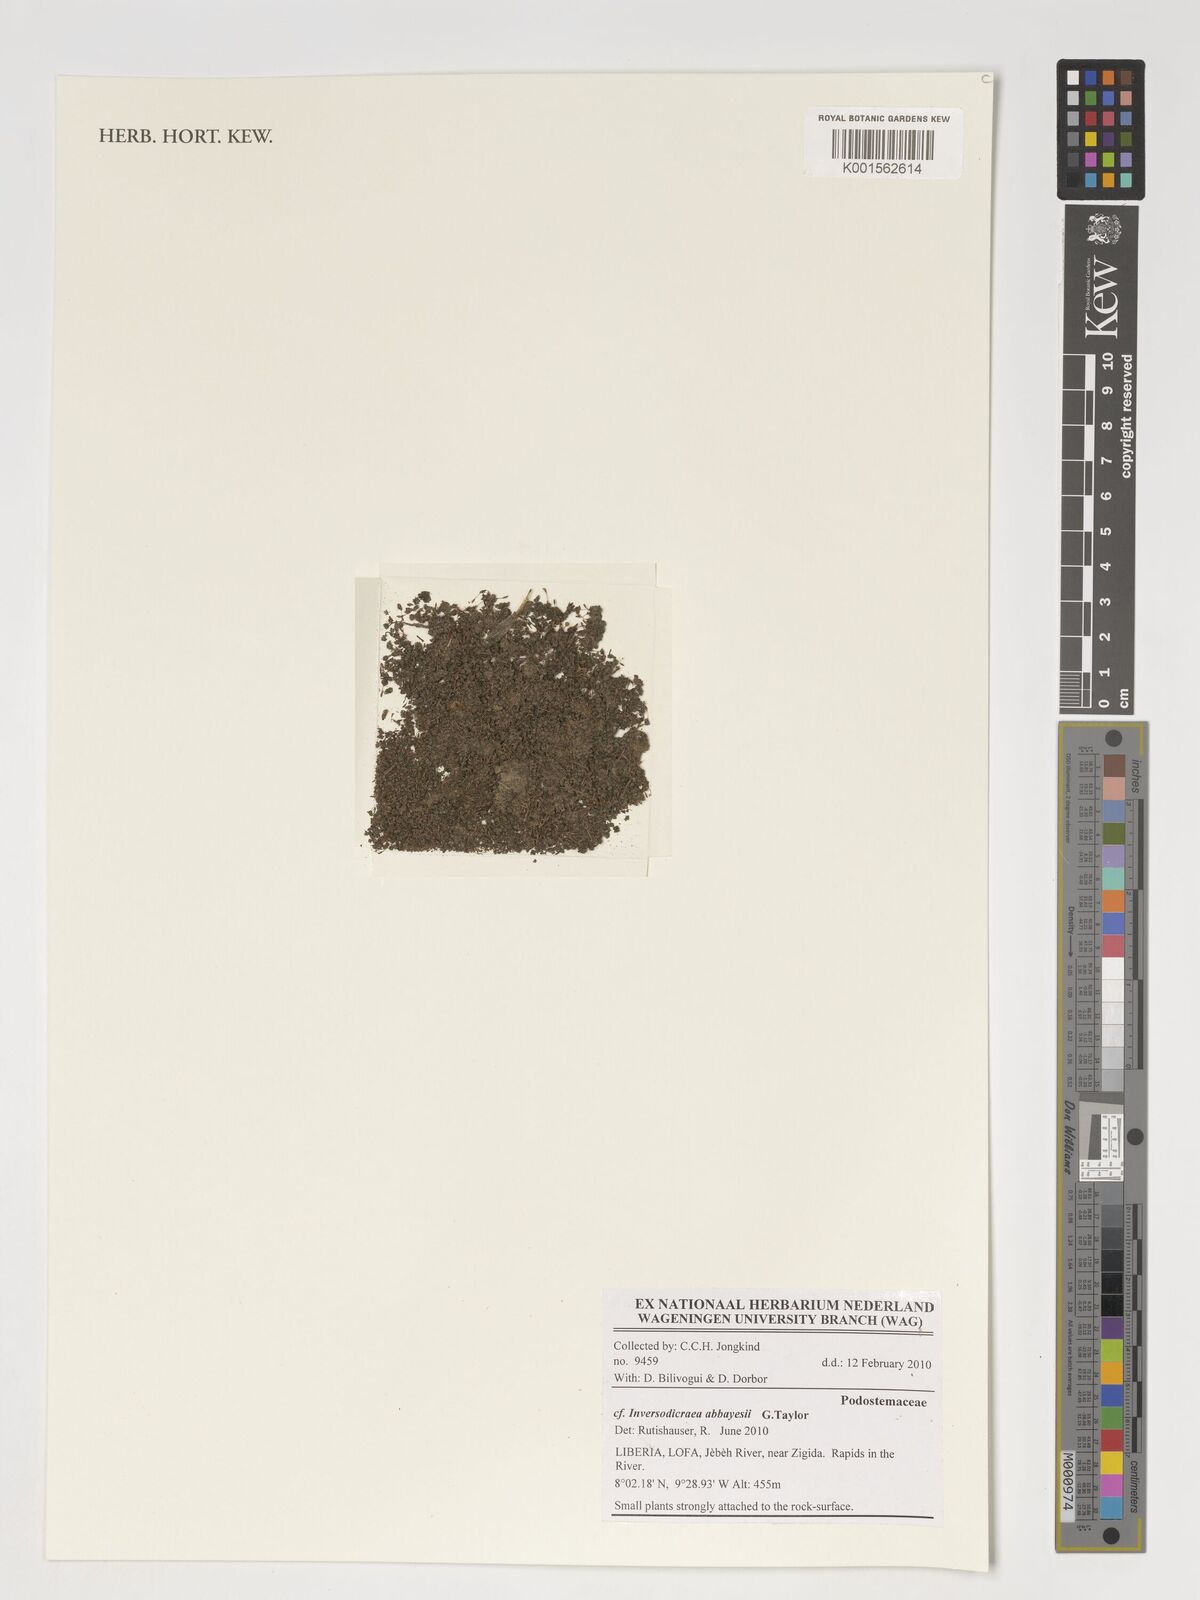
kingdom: Plantae
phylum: Tracheophyta
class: Magnoliopsida
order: Malpighiales
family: Podostemaceae
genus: Inversodicraea
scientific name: Inversodicraea abbayesii
